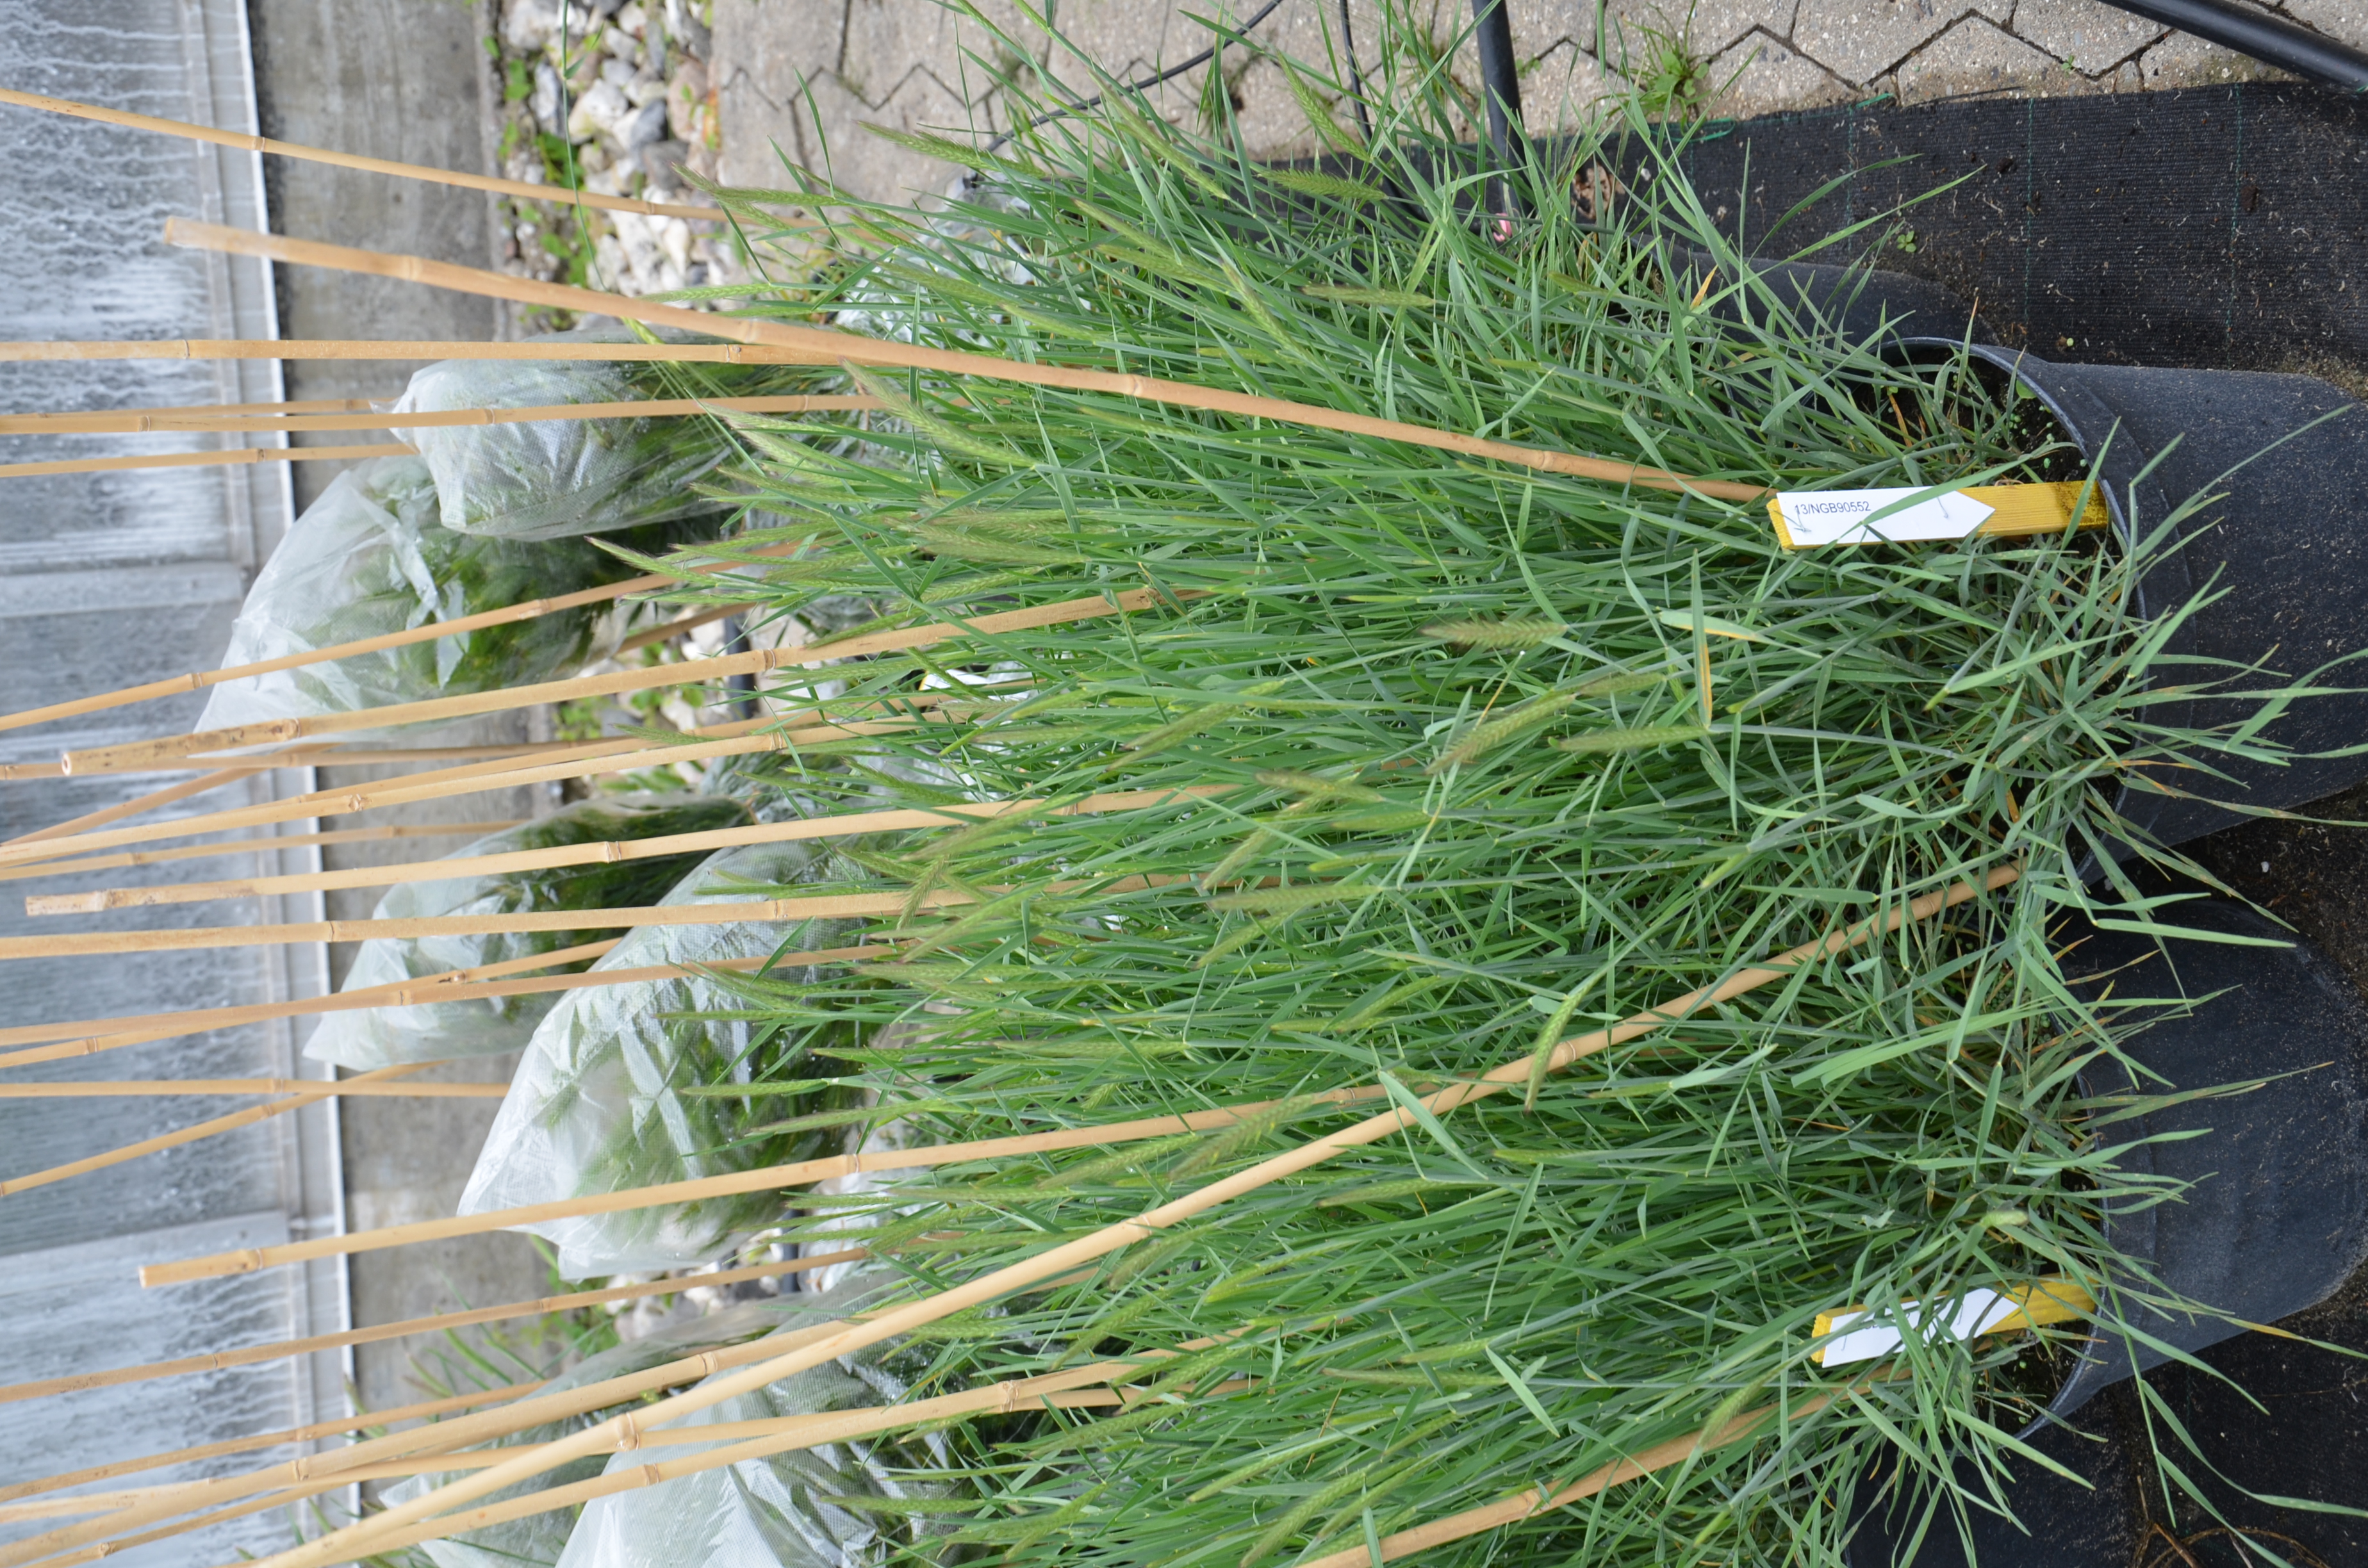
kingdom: Plantae
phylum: Tracheophyta
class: Liliopsida
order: Poales
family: Poaceae
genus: Hordeum
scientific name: Hordeum fuegianum
